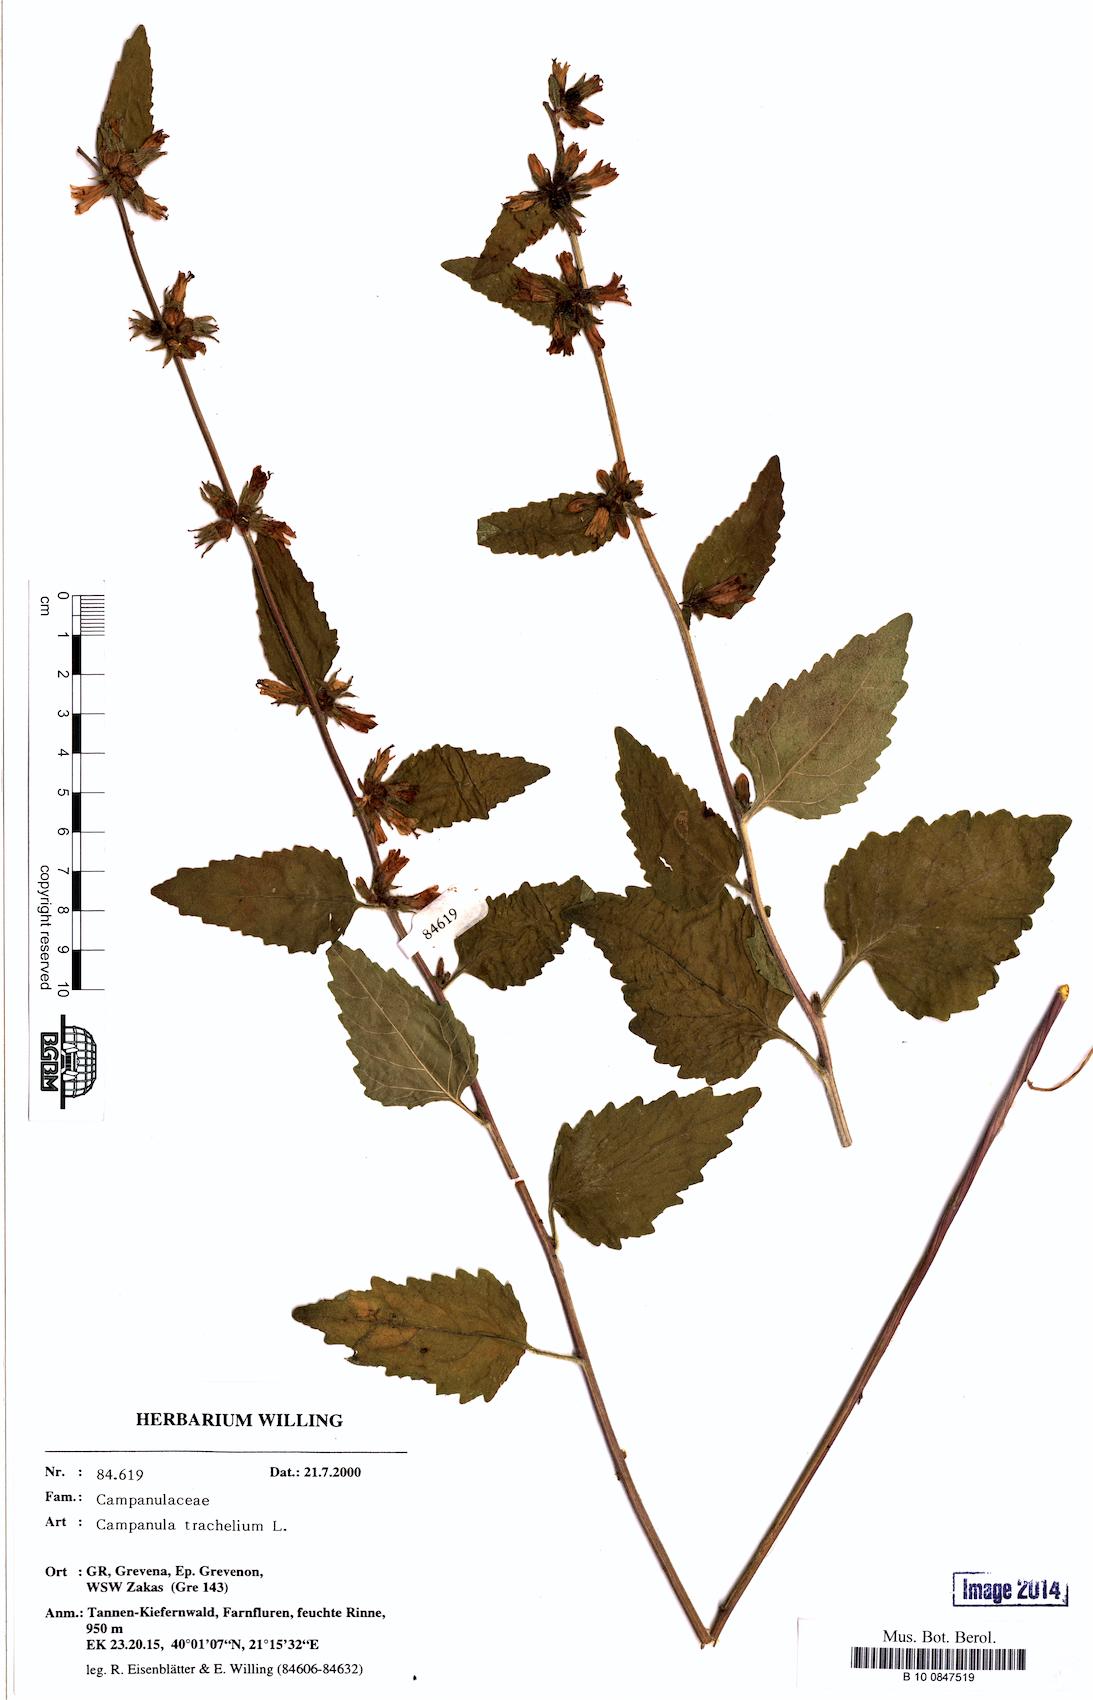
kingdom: Plantae
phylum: Tracheophyta
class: Magnoliopsida
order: Asterales
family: Campanulaceae
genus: Campanula
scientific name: Campanula trachelium
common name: Nettle-leaved bellflower
